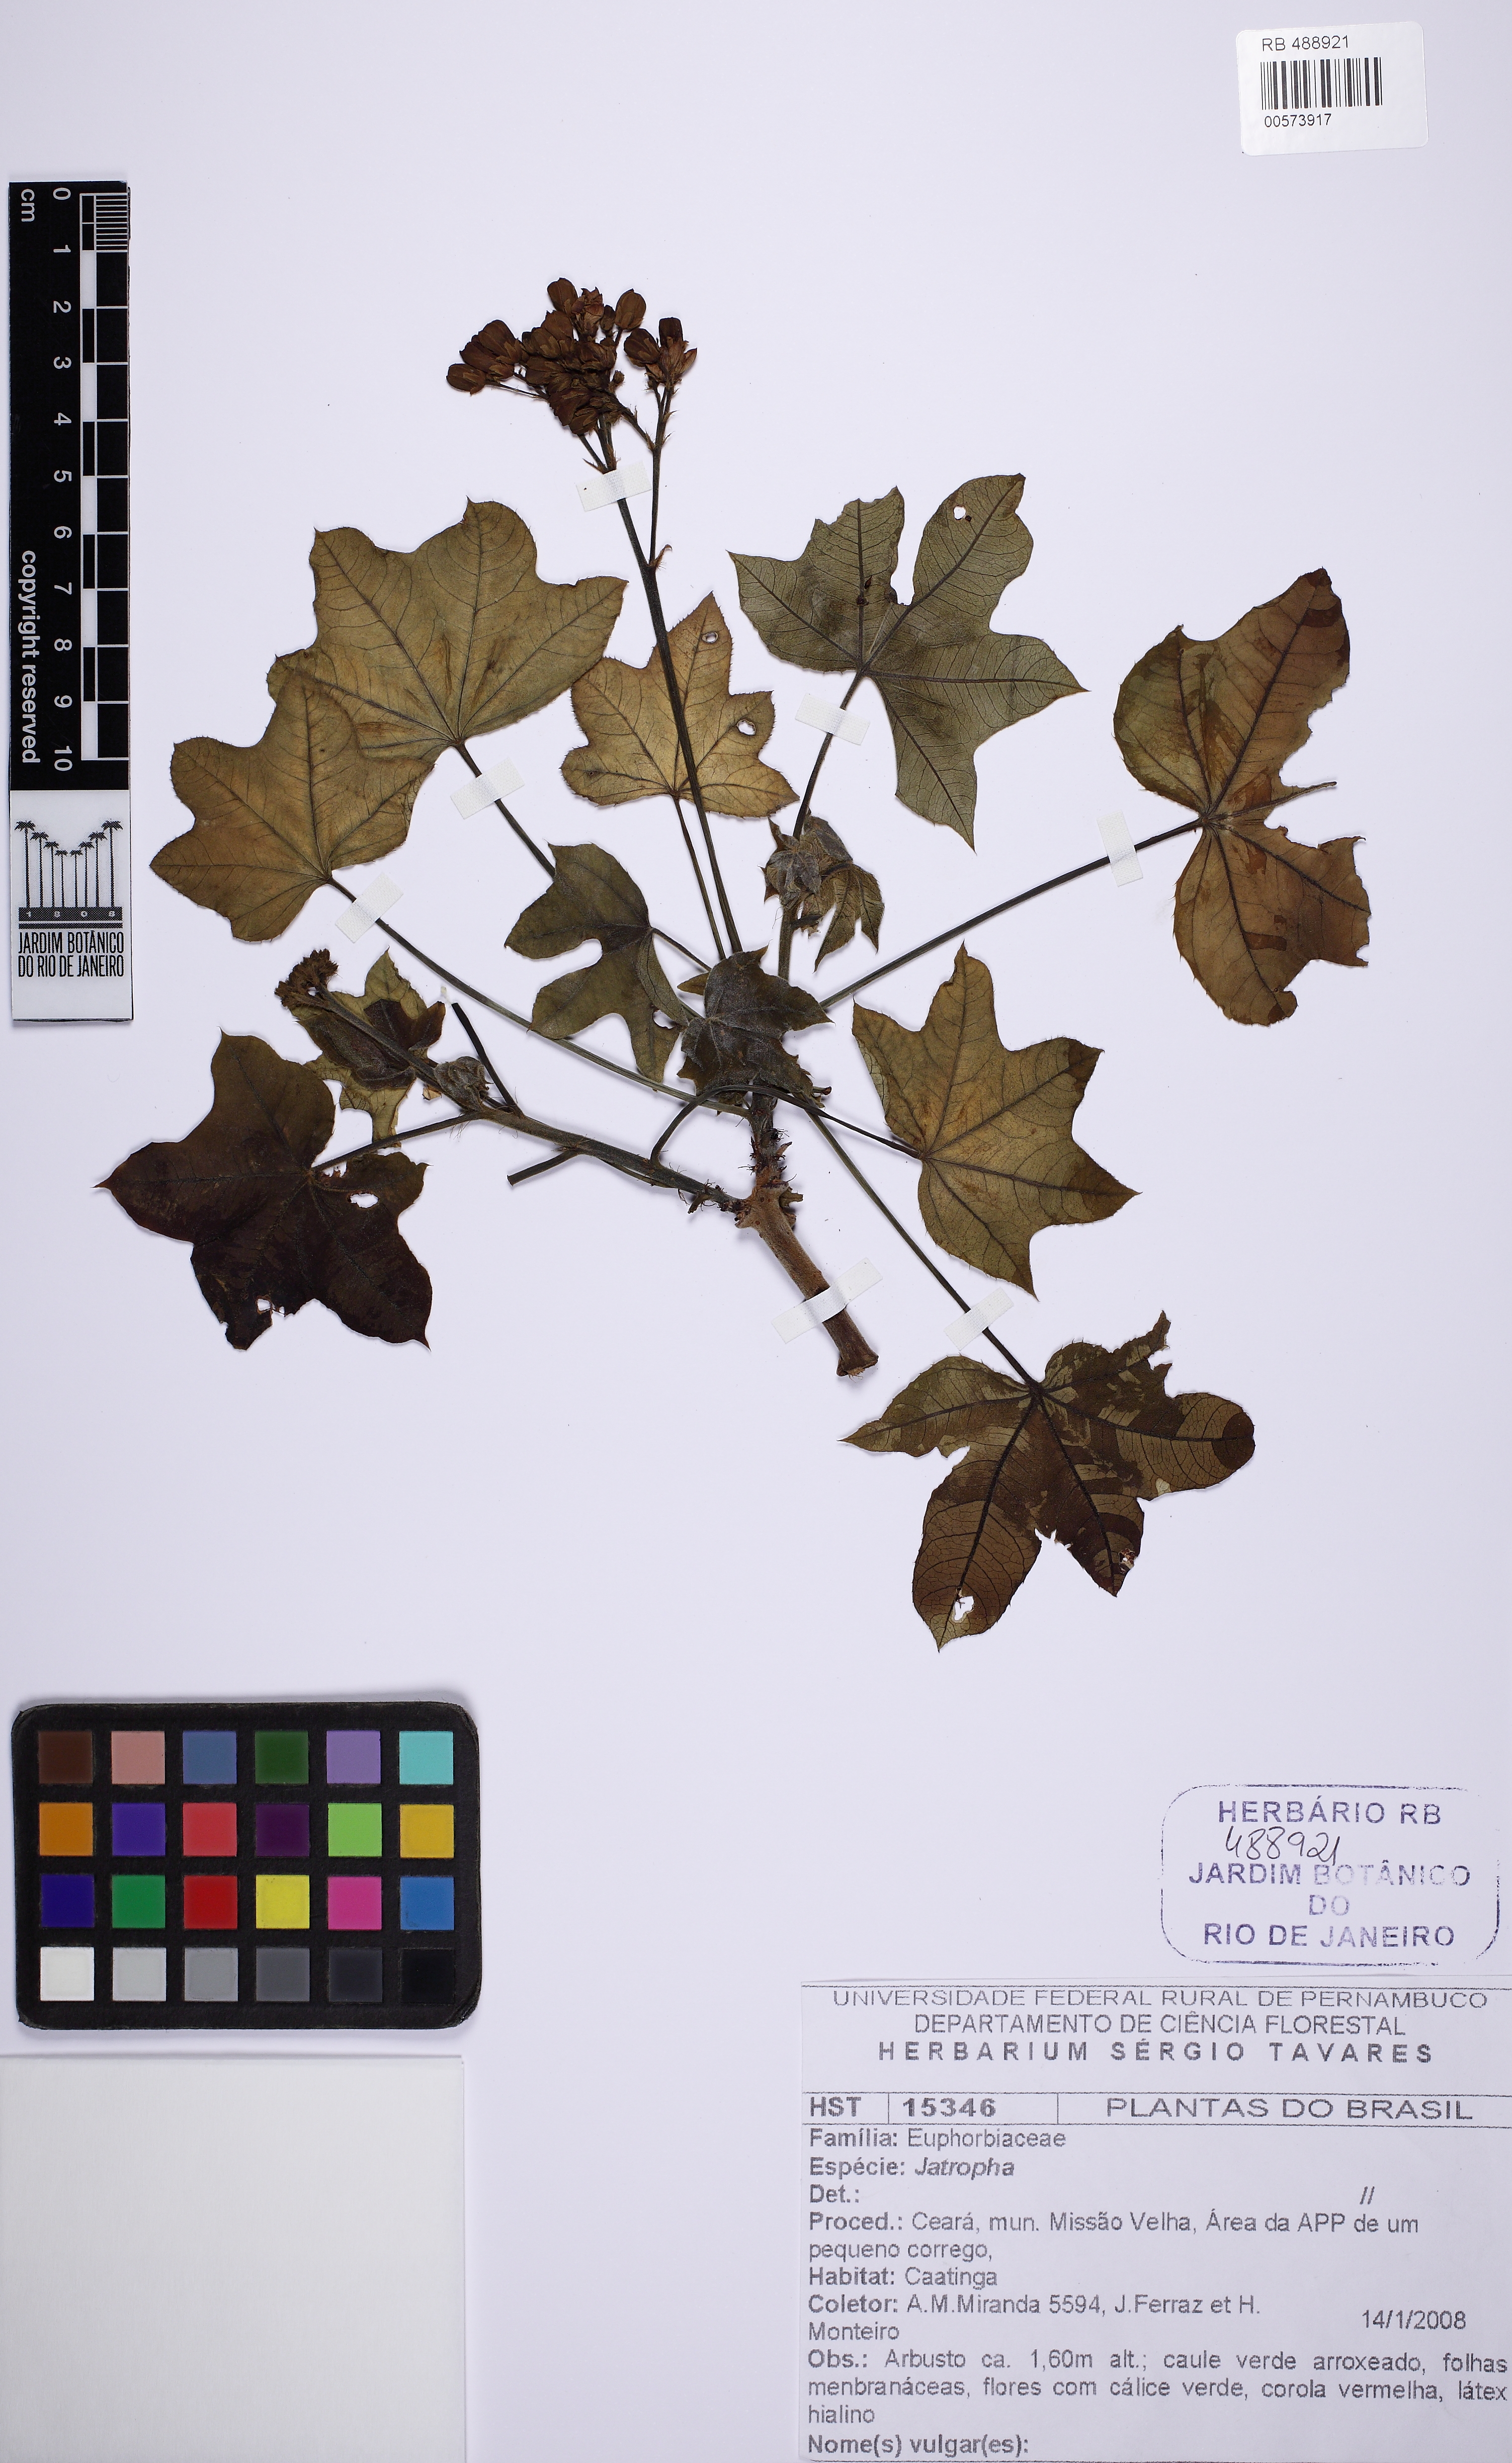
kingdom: Plantae
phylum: Tracheophyta
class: Magnoliopsida
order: Malpighiales
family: Euphorbiaceae
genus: Jatropha
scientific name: Jatropha mollissima
